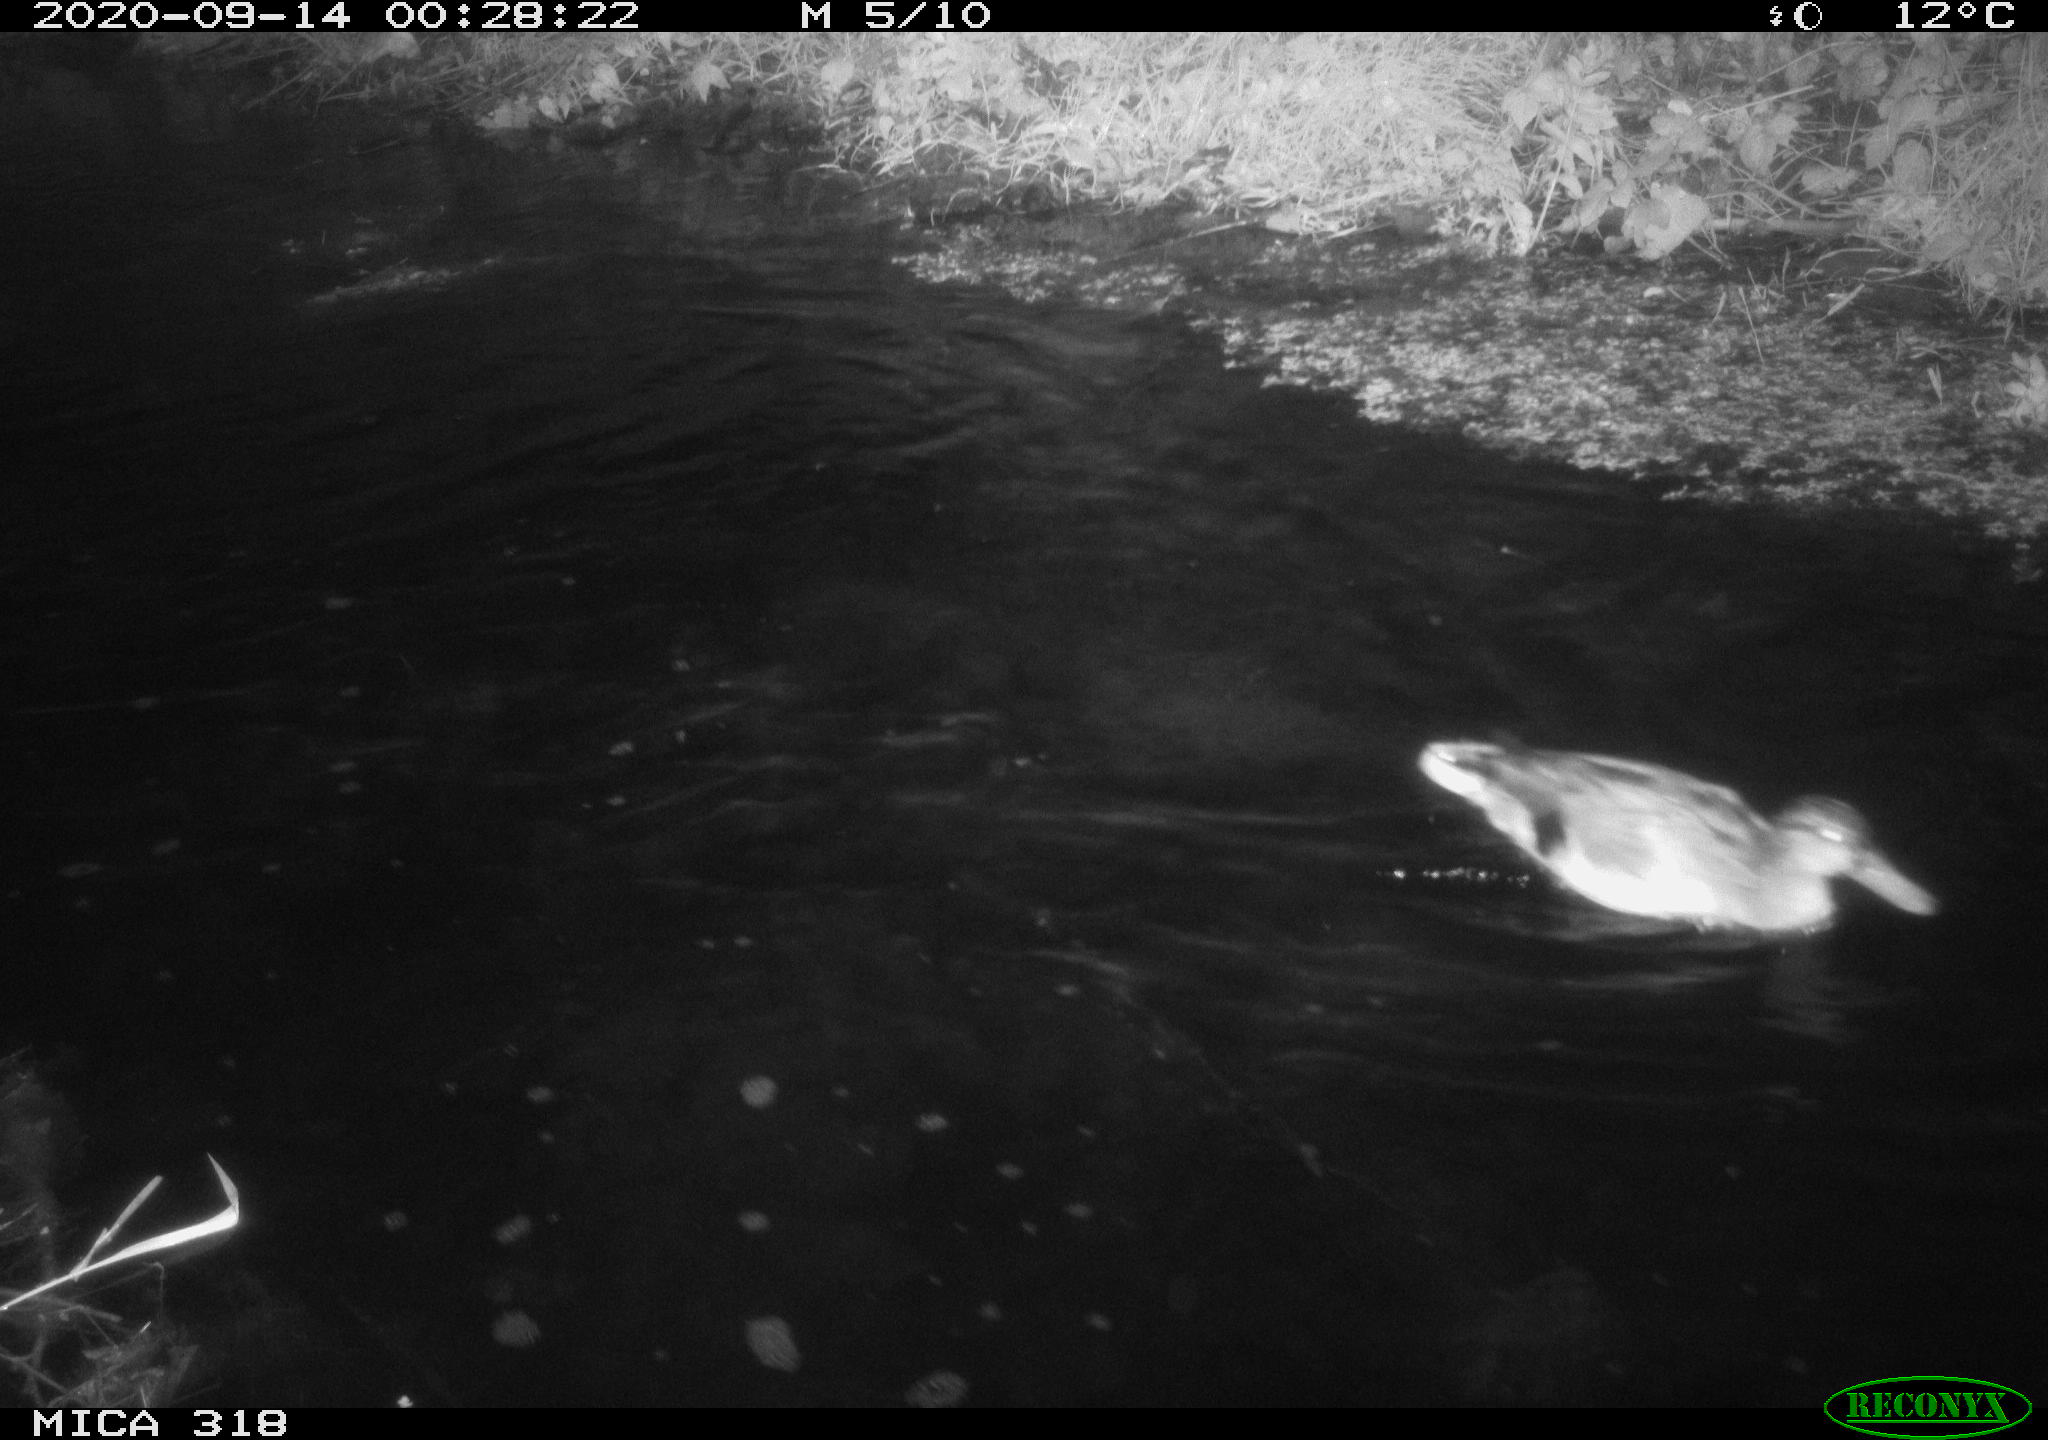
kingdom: Animalia
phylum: Chordata
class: Aves
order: Anseriformes
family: Anatidae
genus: Mareca
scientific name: Mareca strepera
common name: Gadwall
